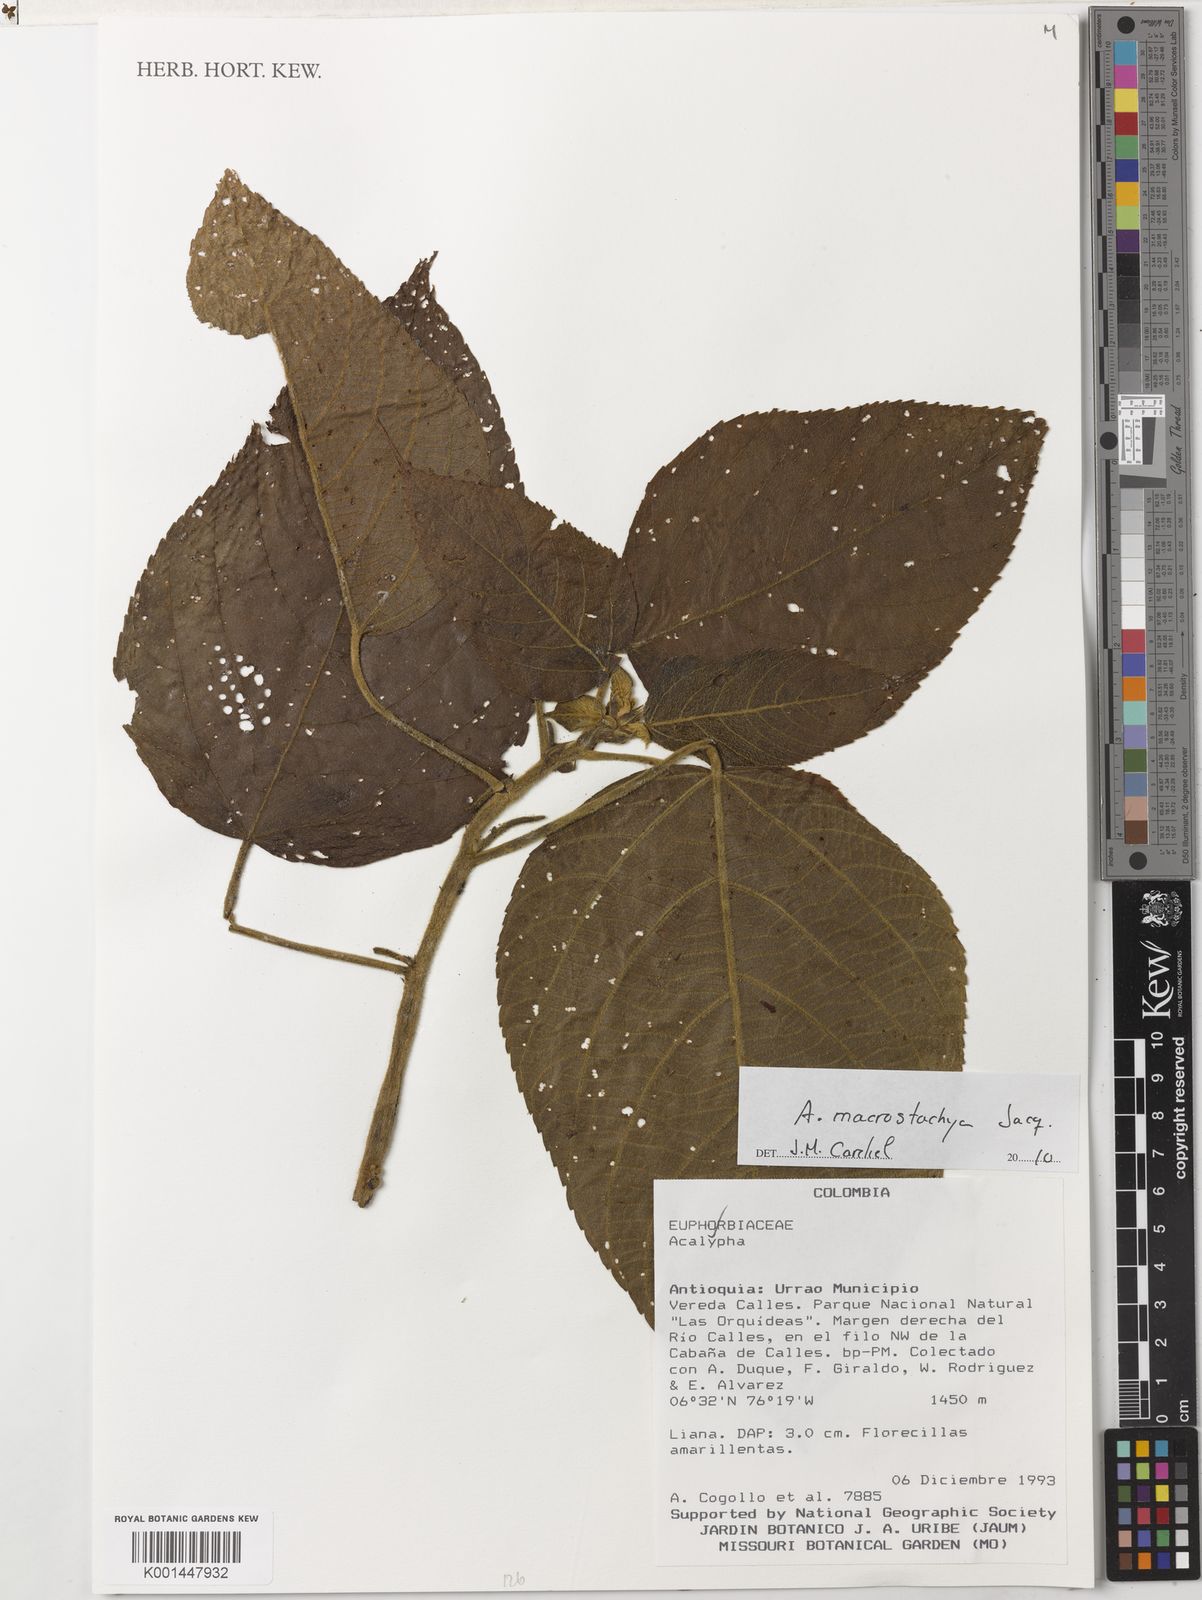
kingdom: Plantae
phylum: Tracheophyta
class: Magnoliopsida
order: Malpighiales
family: Euphorbiaceae
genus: Acalypha
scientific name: Acalypha macrostachya
